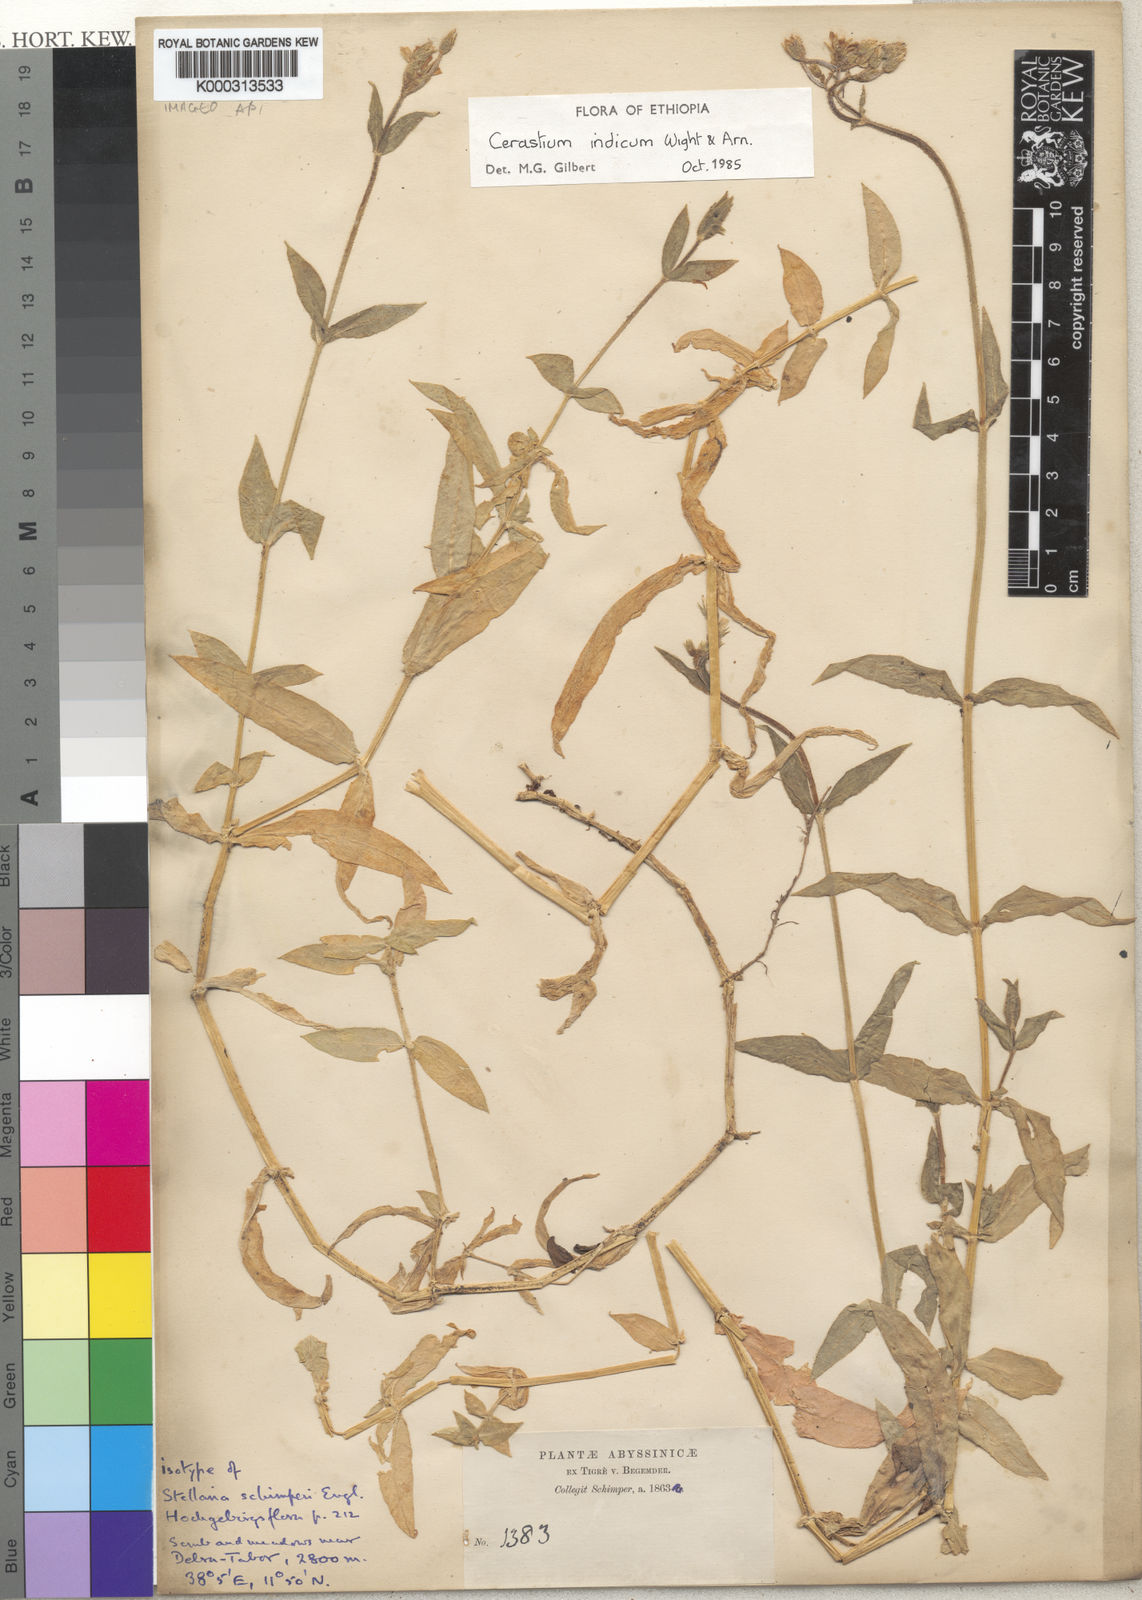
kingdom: Plantae
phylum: Tracheophyta
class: Magnoliopsida
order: Caryophyllales
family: Caryophyllaceae
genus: Cerastium
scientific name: Cerastium lanceolatum
